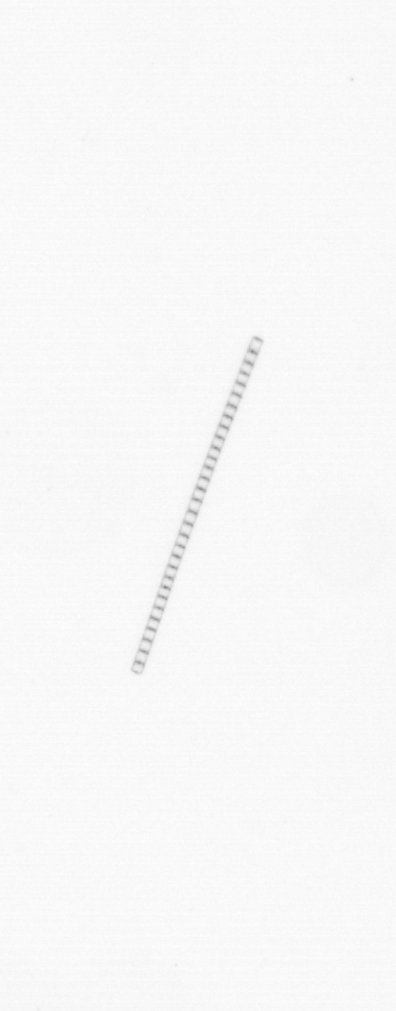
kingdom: Chromista
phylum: Ochrophyta
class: Bacillariophyceae
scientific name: Bacillariophyceae
